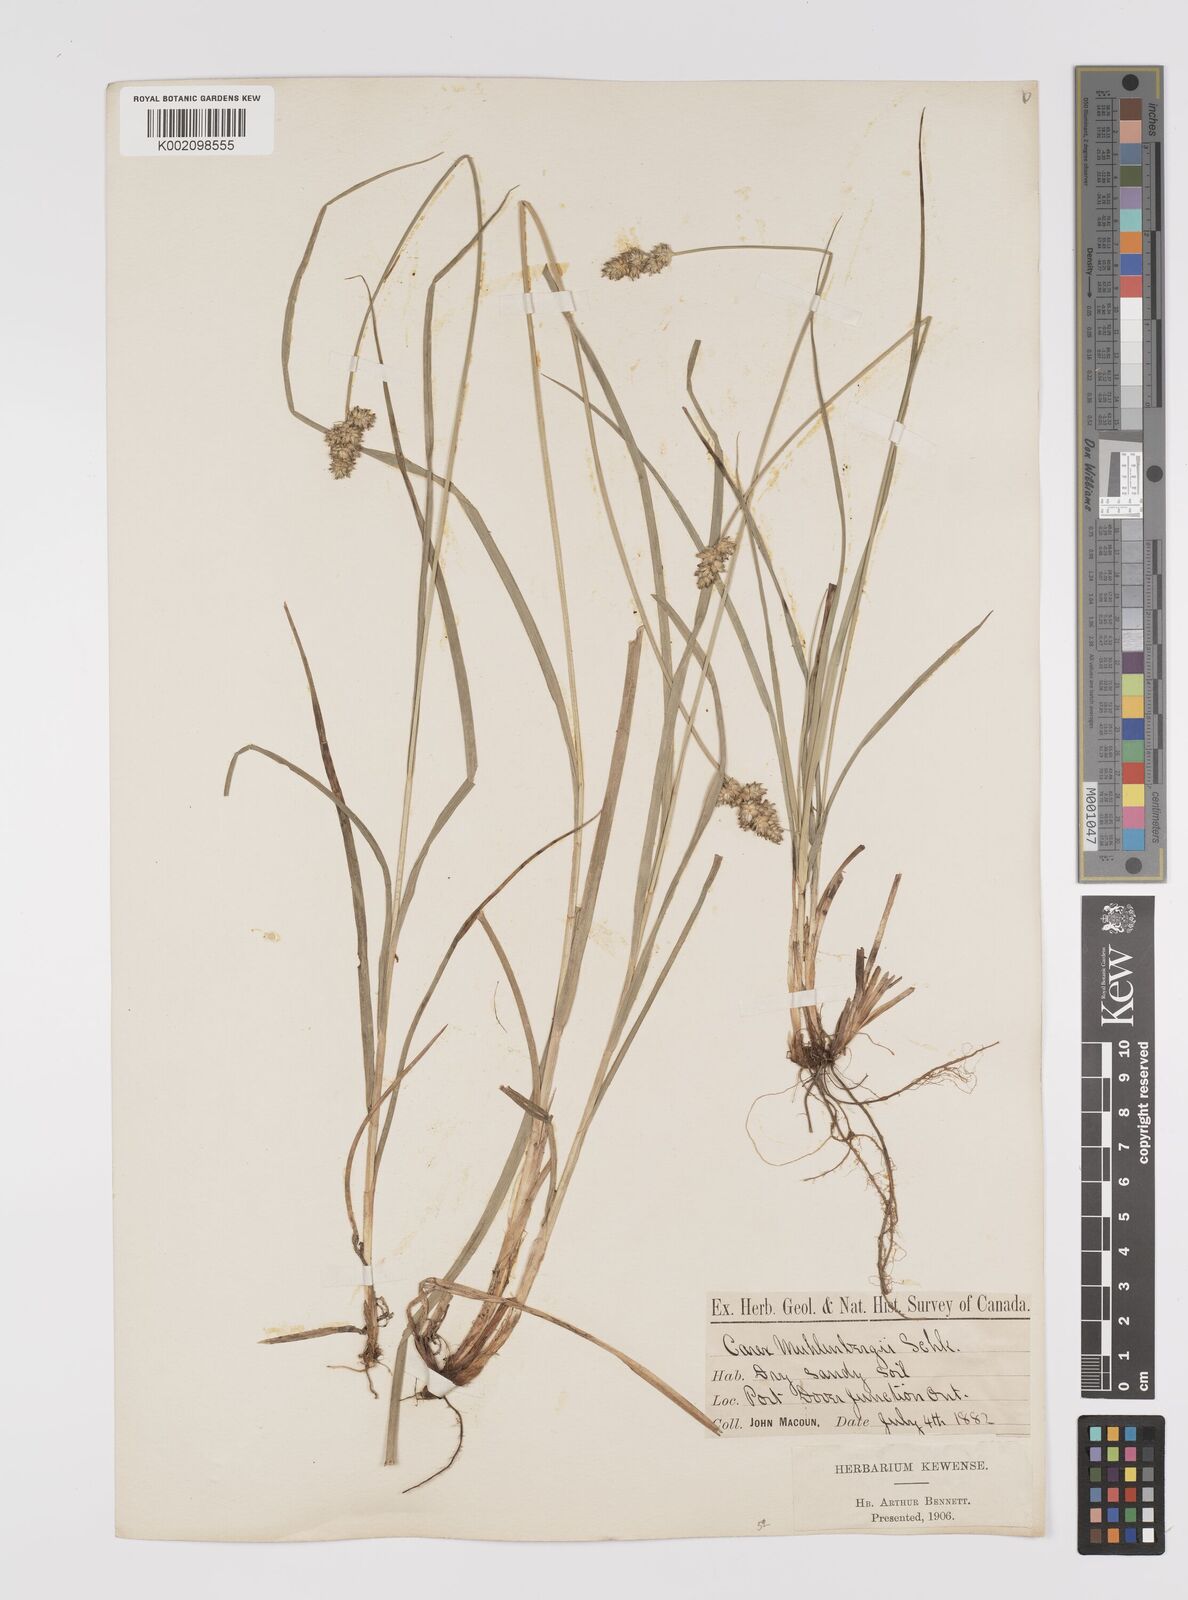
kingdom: Plantae
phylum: Tracheophyta
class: Liliopsida
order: Poales
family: Cyperaceae
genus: Carex
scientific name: Carex vulpinoidea
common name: American fox-sedge
